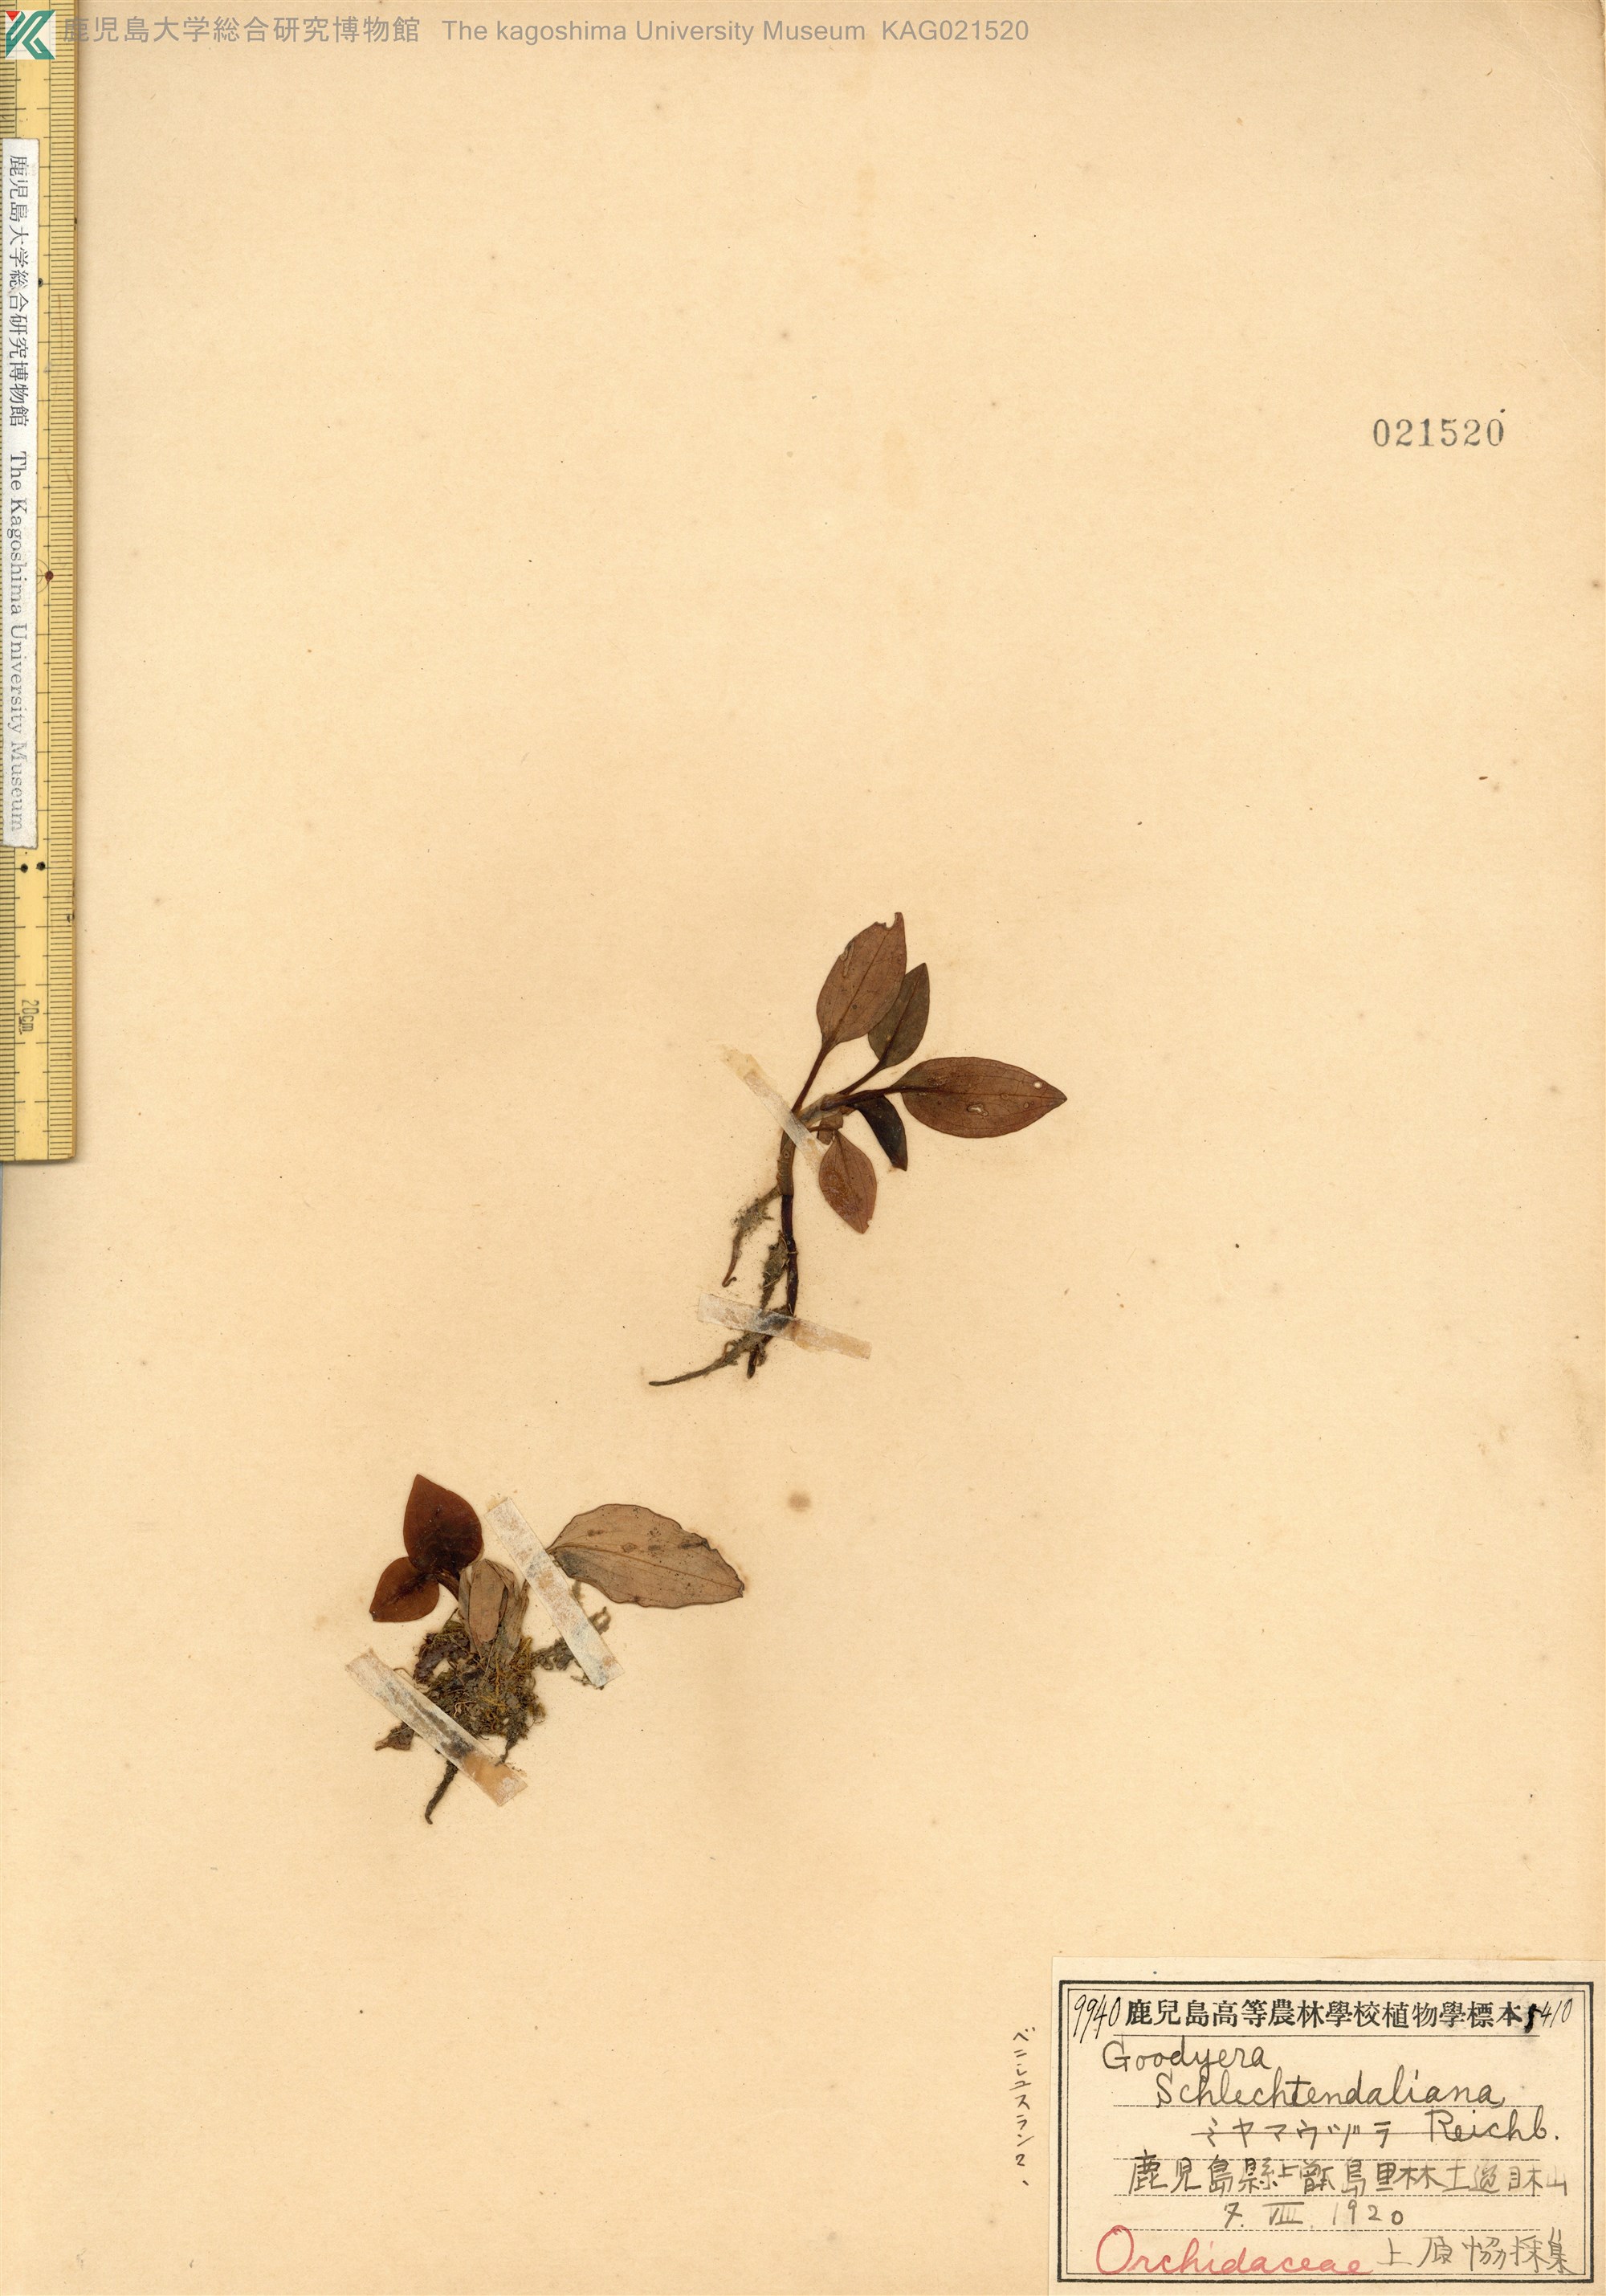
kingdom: Plantae
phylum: Tracheophyta
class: Liliopsida
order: Asparagales
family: Orchidaceae
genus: Goodyera
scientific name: Goodyera biflora
